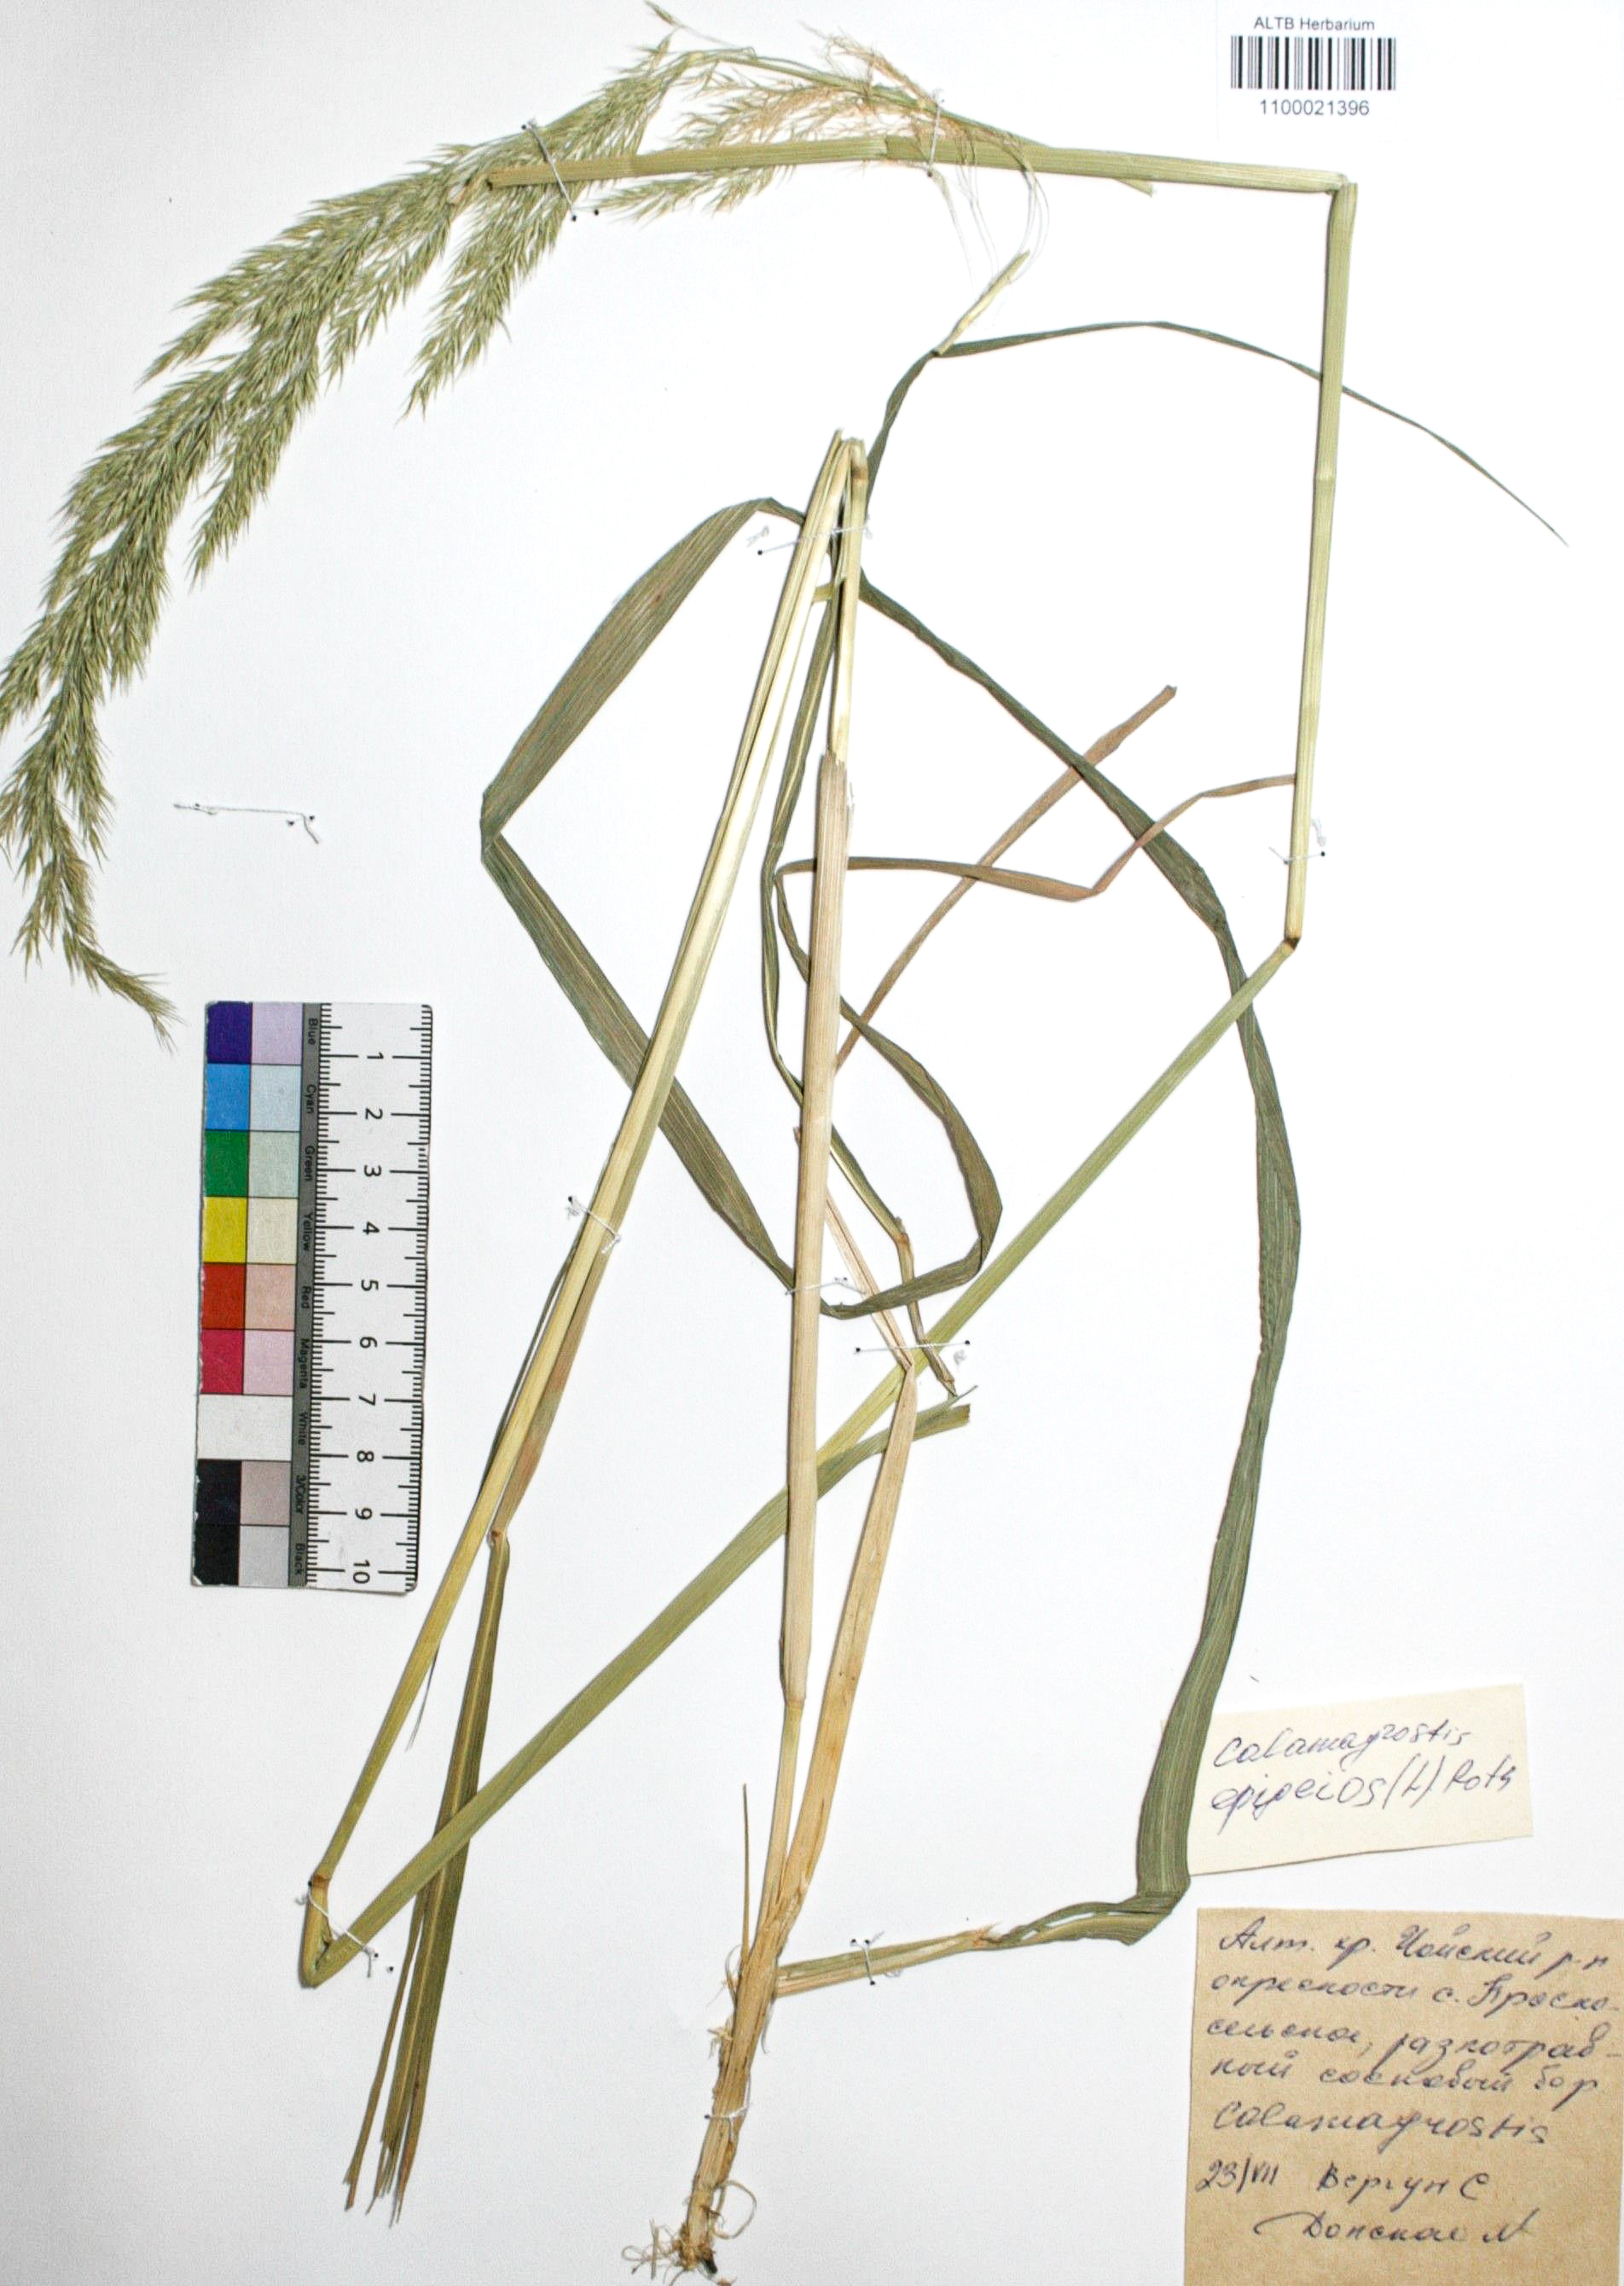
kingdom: Plantae
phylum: Tracheophyta
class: Liliopsida
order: Poales
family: Poaceae
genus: Calamagrostis
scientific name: Calamagrostis epigejos
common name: Wood small-reed
